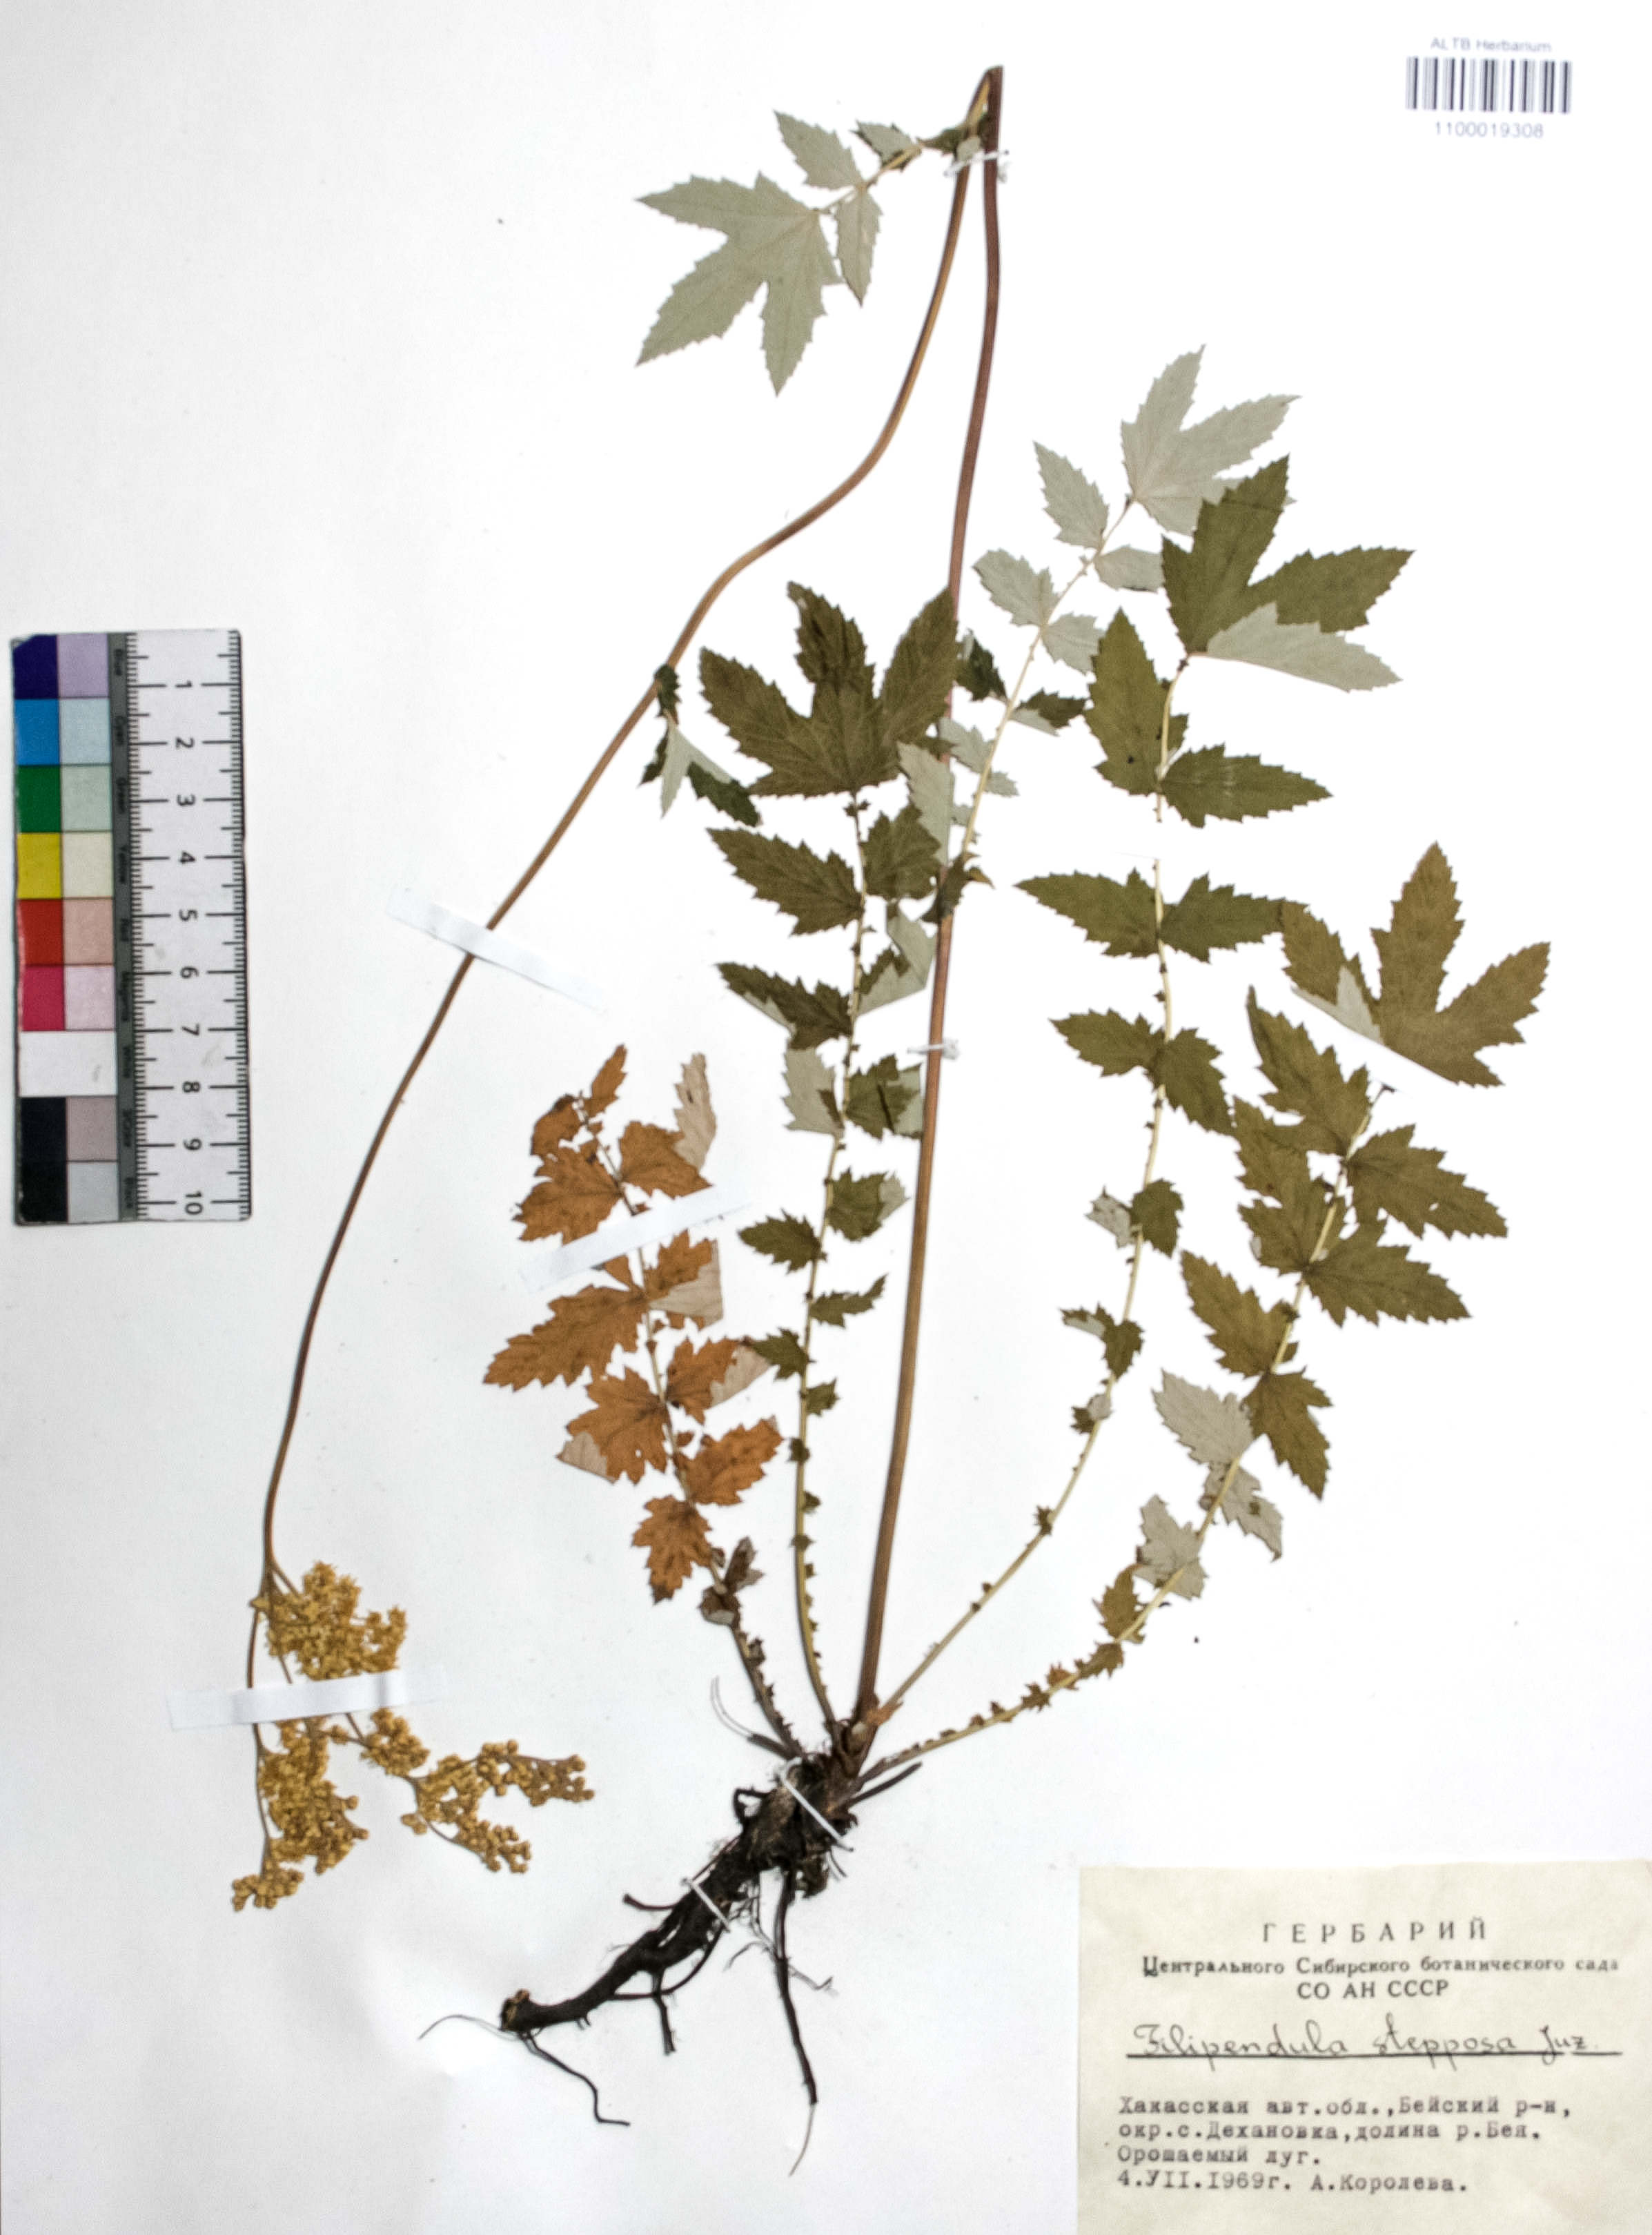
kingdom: Plantae
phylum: Tracheophyta
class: Magnoliopsida
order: Rosales
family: Rosaceae
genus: Filipendula
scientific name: Filipendula ulmaria
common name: Meadowsweet
